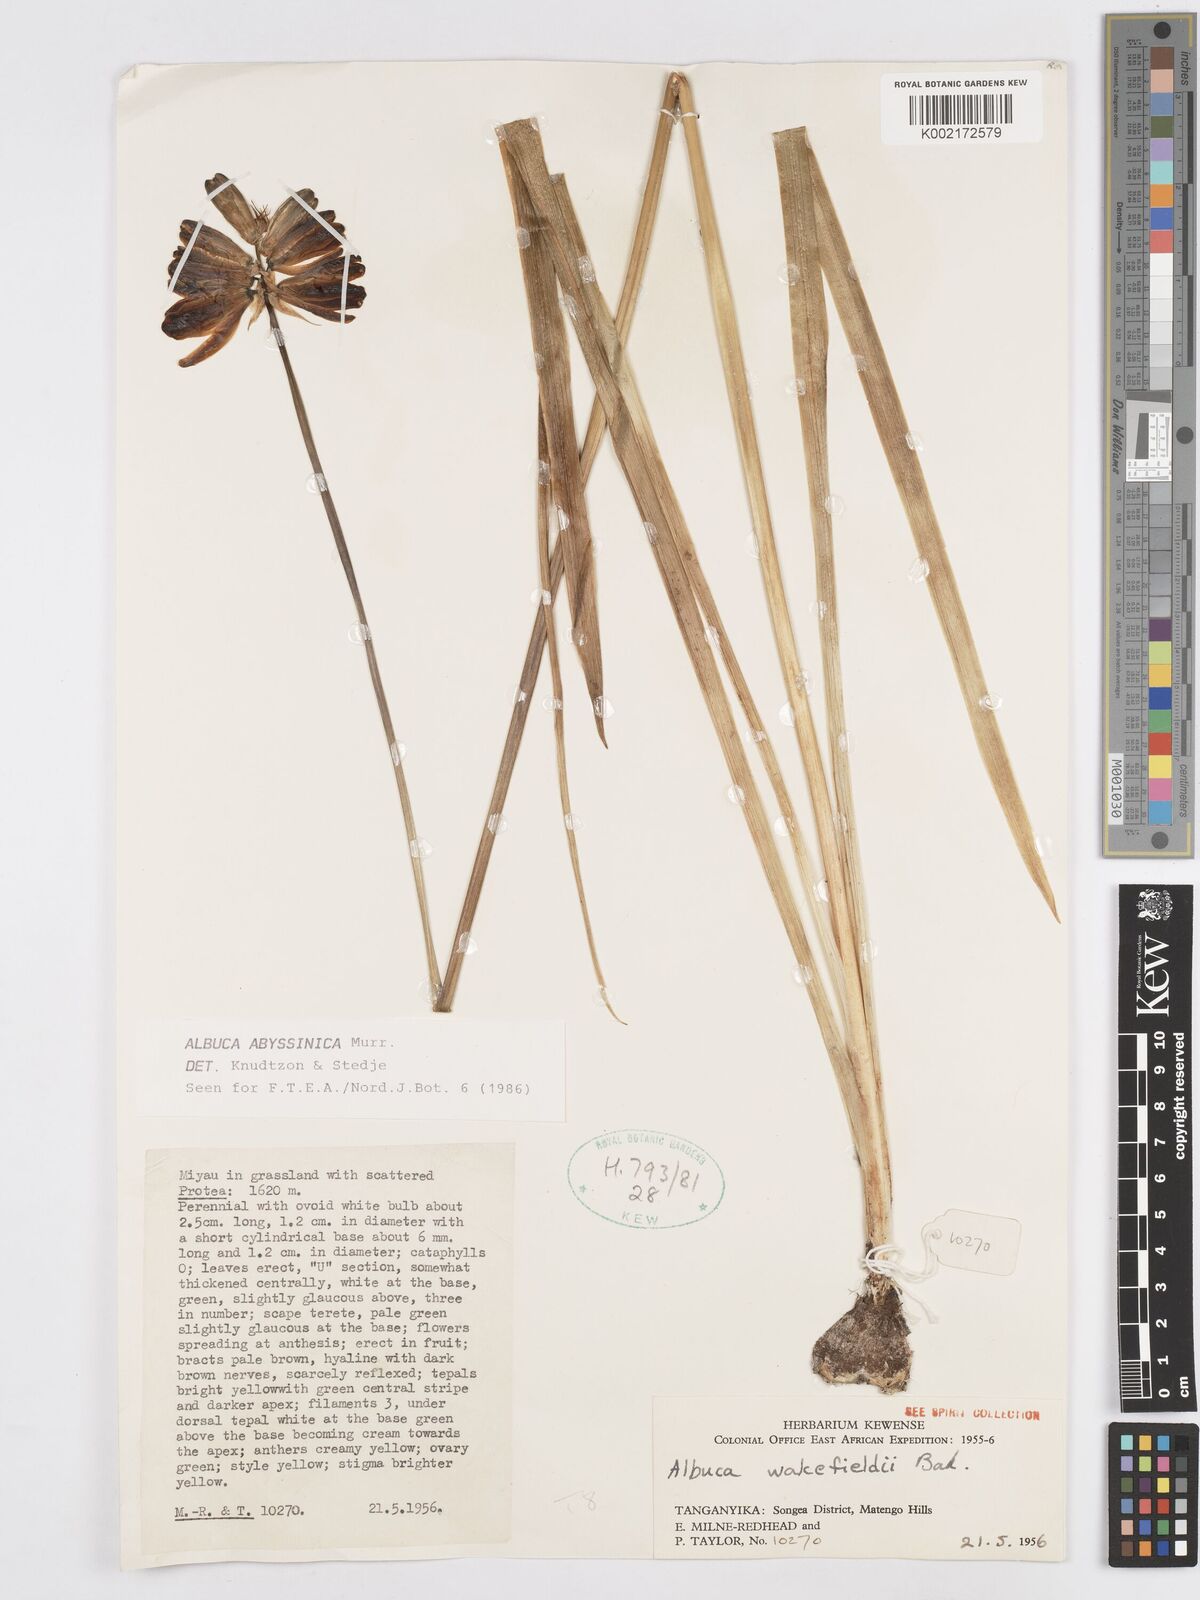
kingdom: Plantae
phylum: Tracheophyta
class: Liliopsida
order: Asparagales
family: Asparagaceae
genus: Albuca
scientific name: Albuca abyssinica
